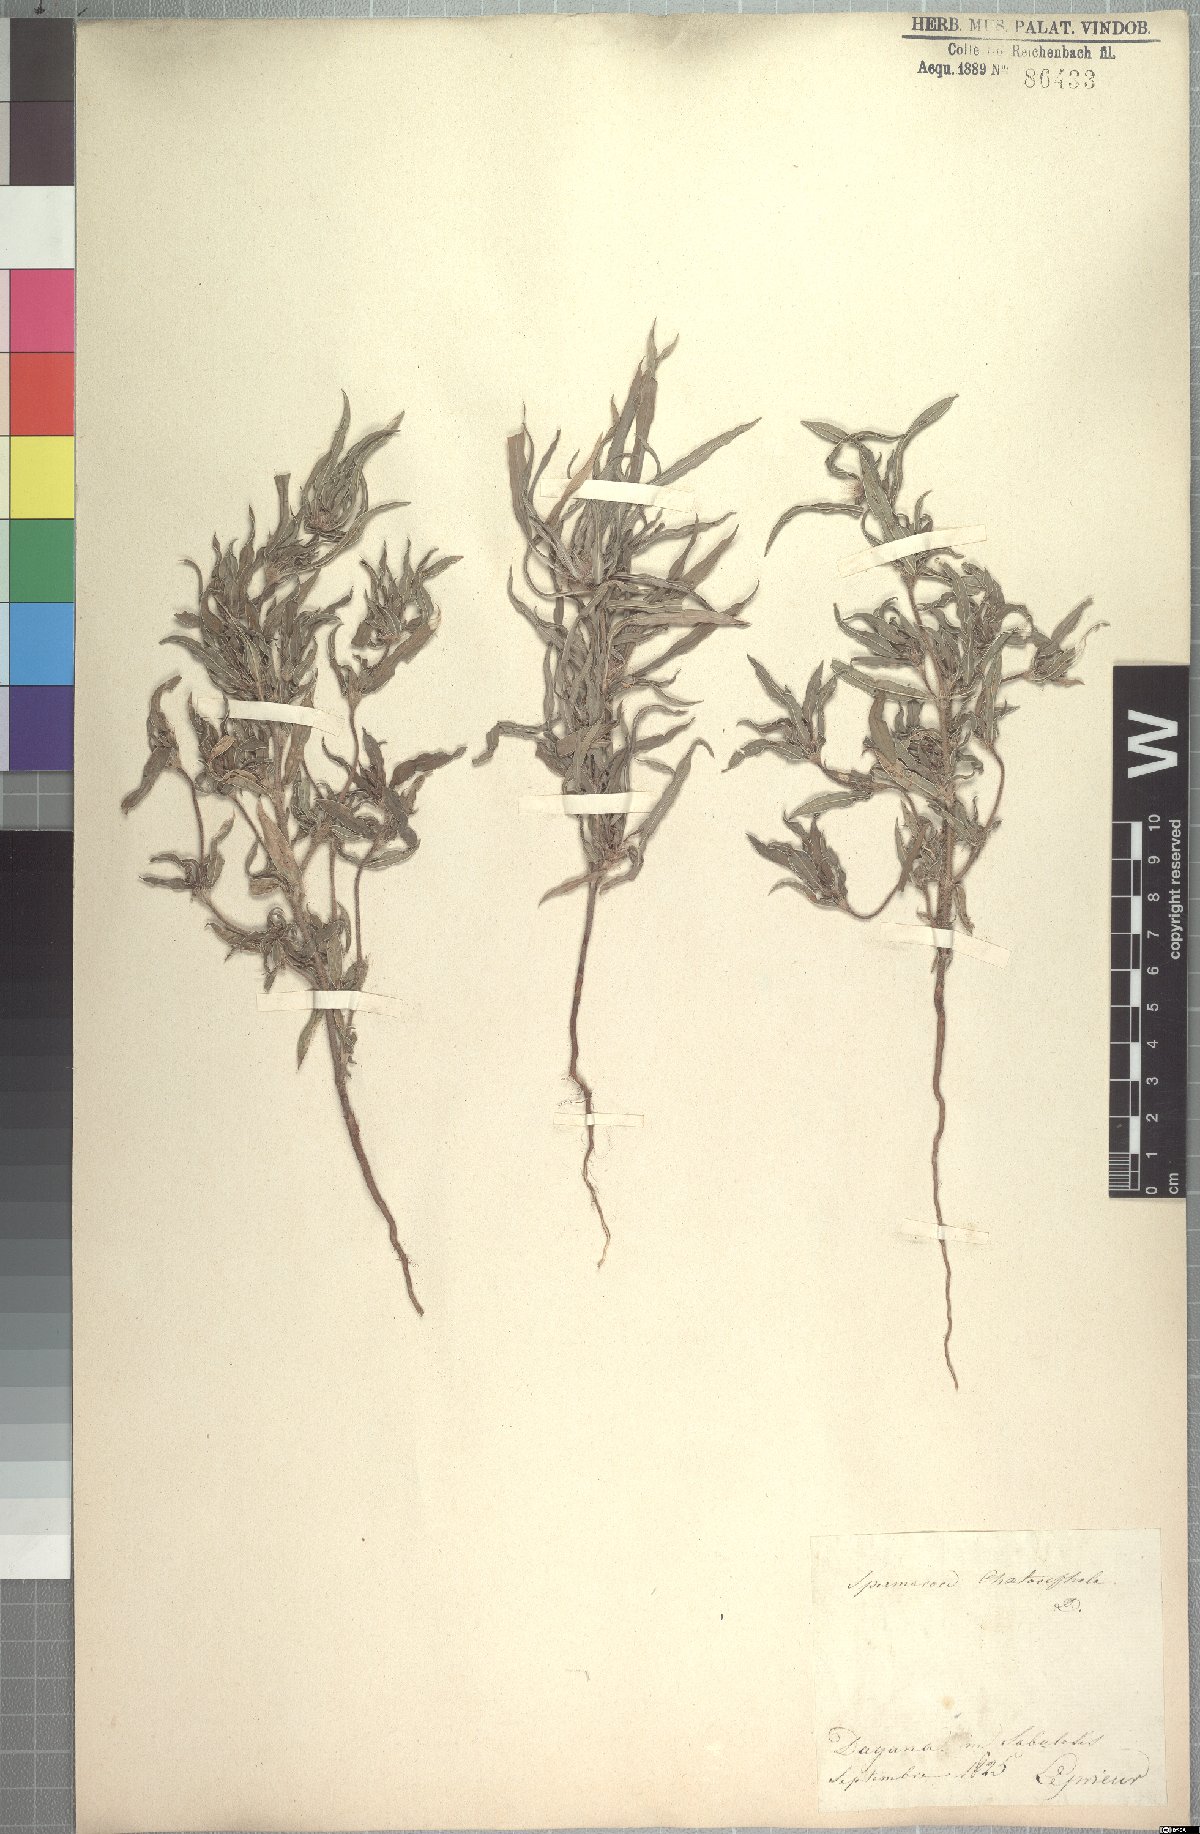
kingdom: Plantae
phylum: Tracheophyta
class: Magnoliopsida
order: Gentianales
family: Rubiaceae
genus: Spermacoce
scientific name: Spermacoce chaetocephala
